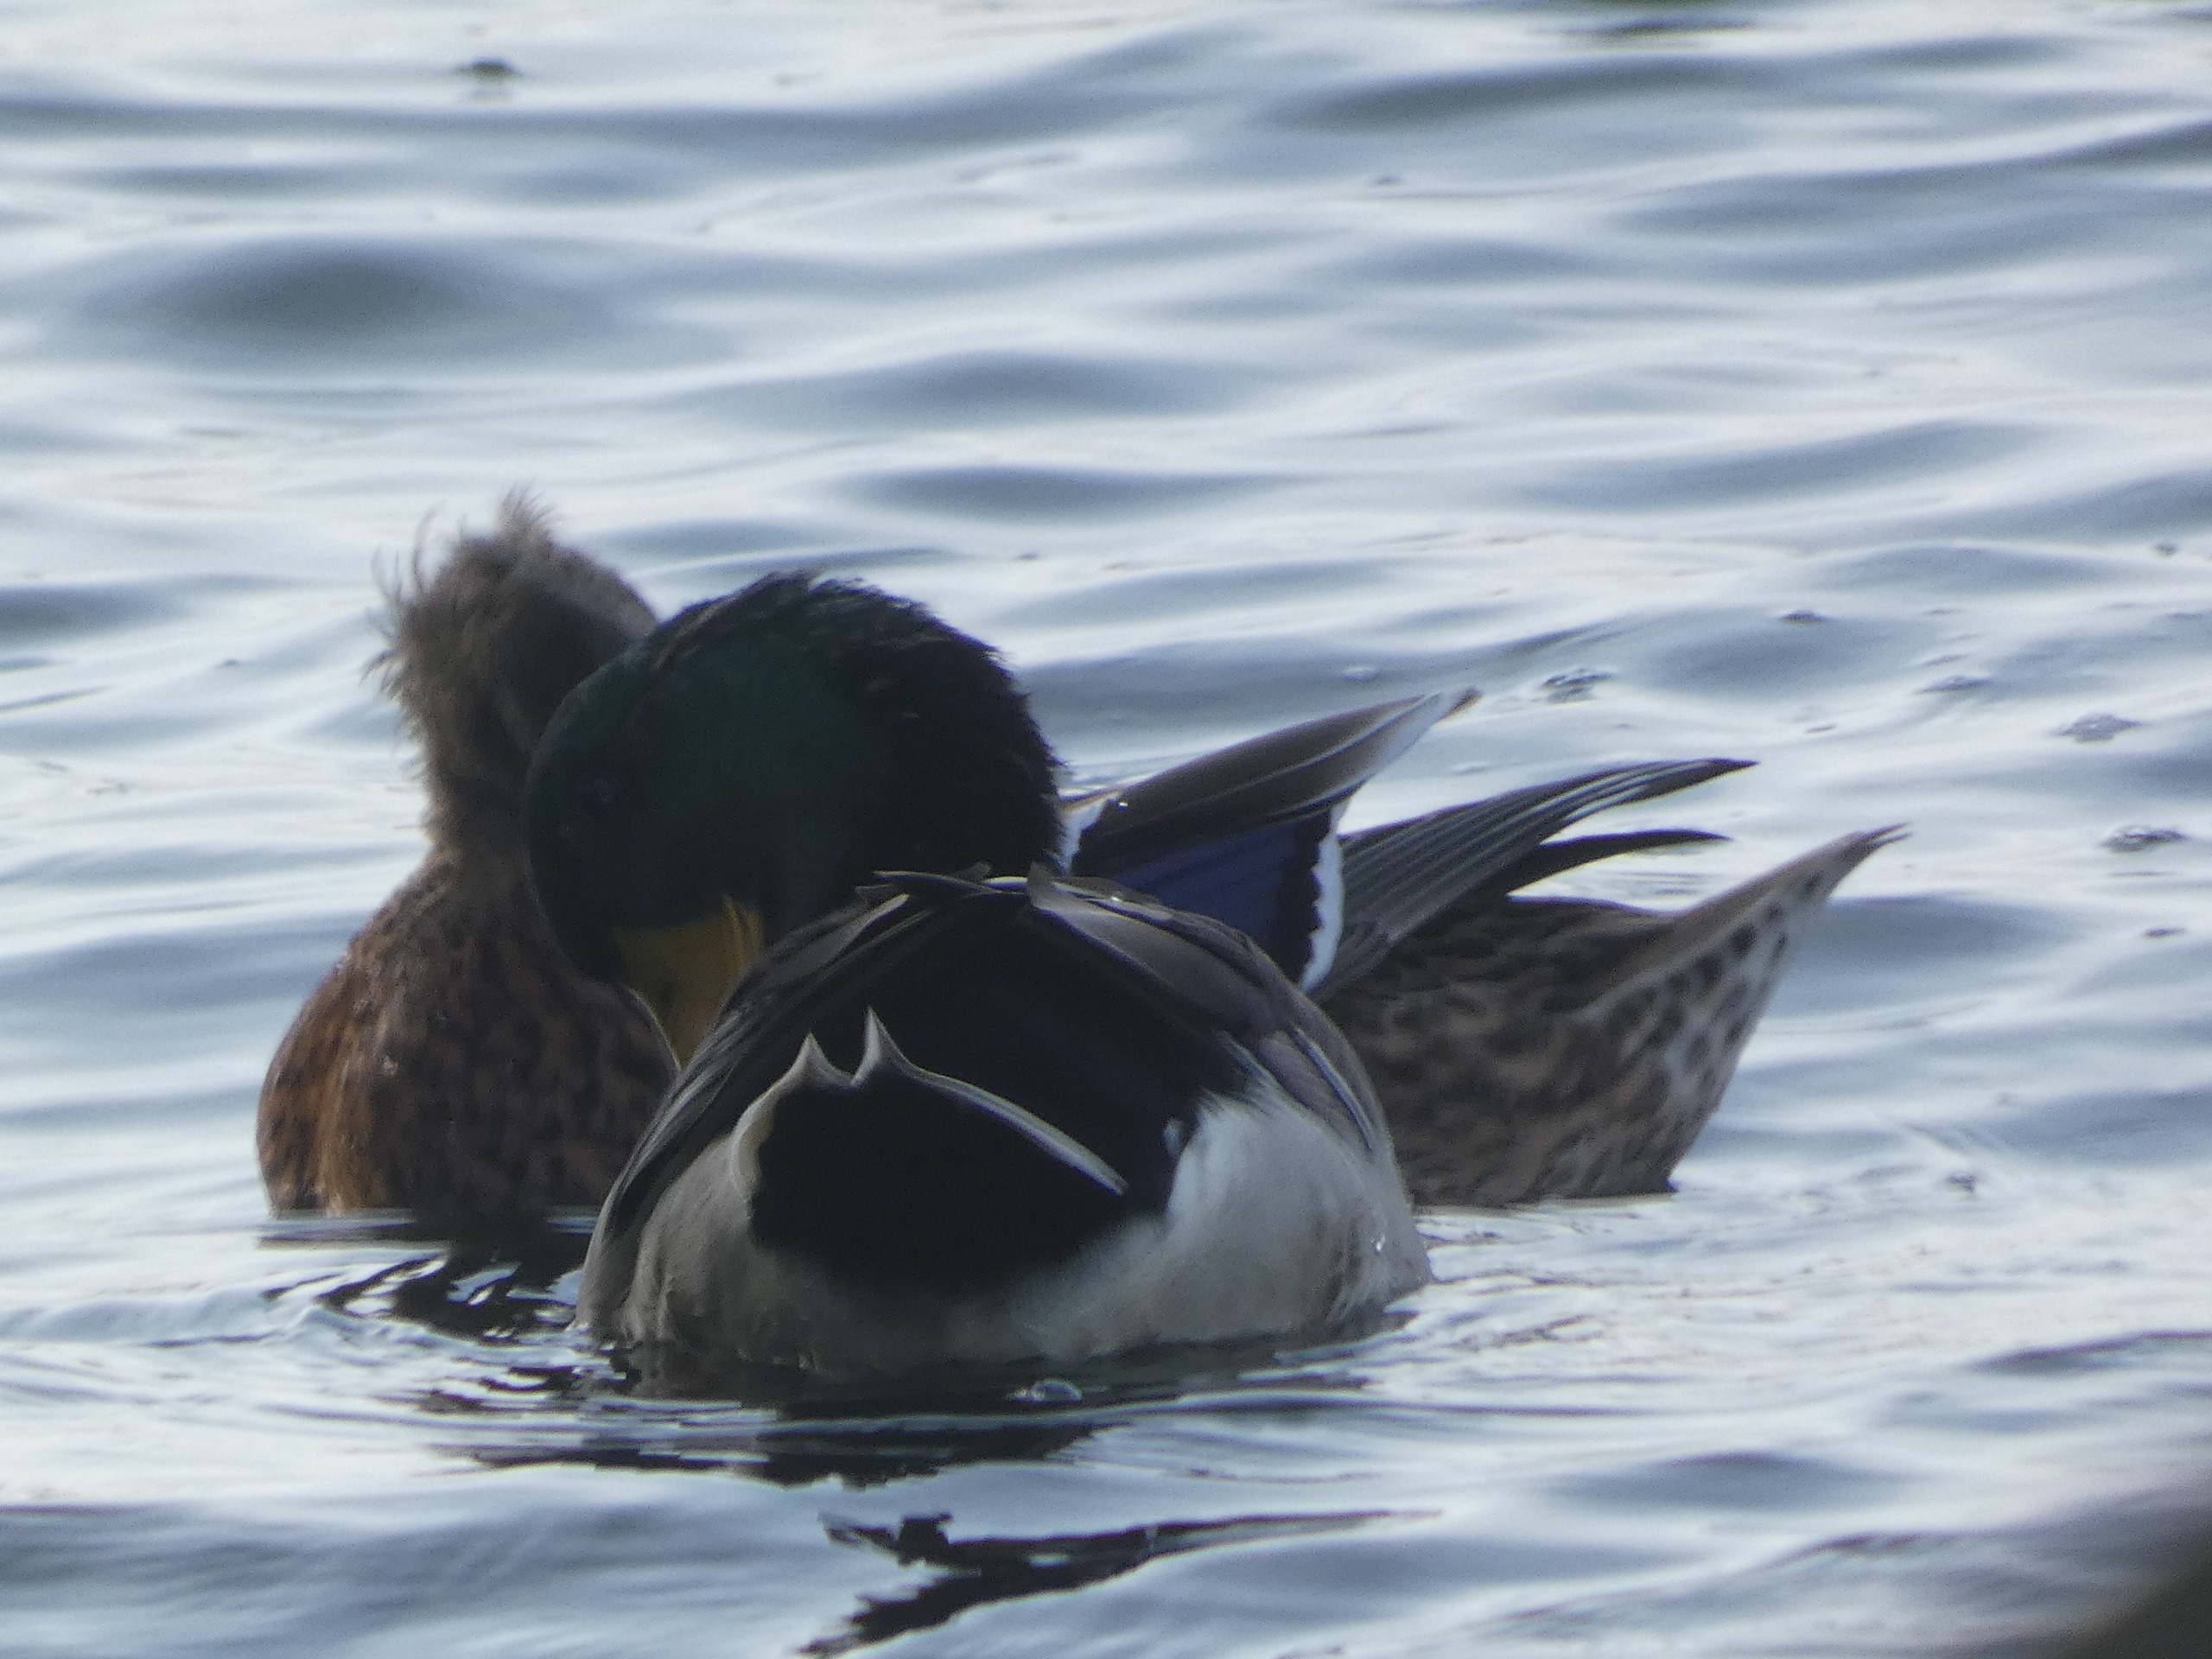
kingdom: Animalia
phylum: Chordata
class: Aves
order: Anseriformes
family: Anatidae
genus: Anas
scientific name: Anas platyrhynchos
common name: Gråand
